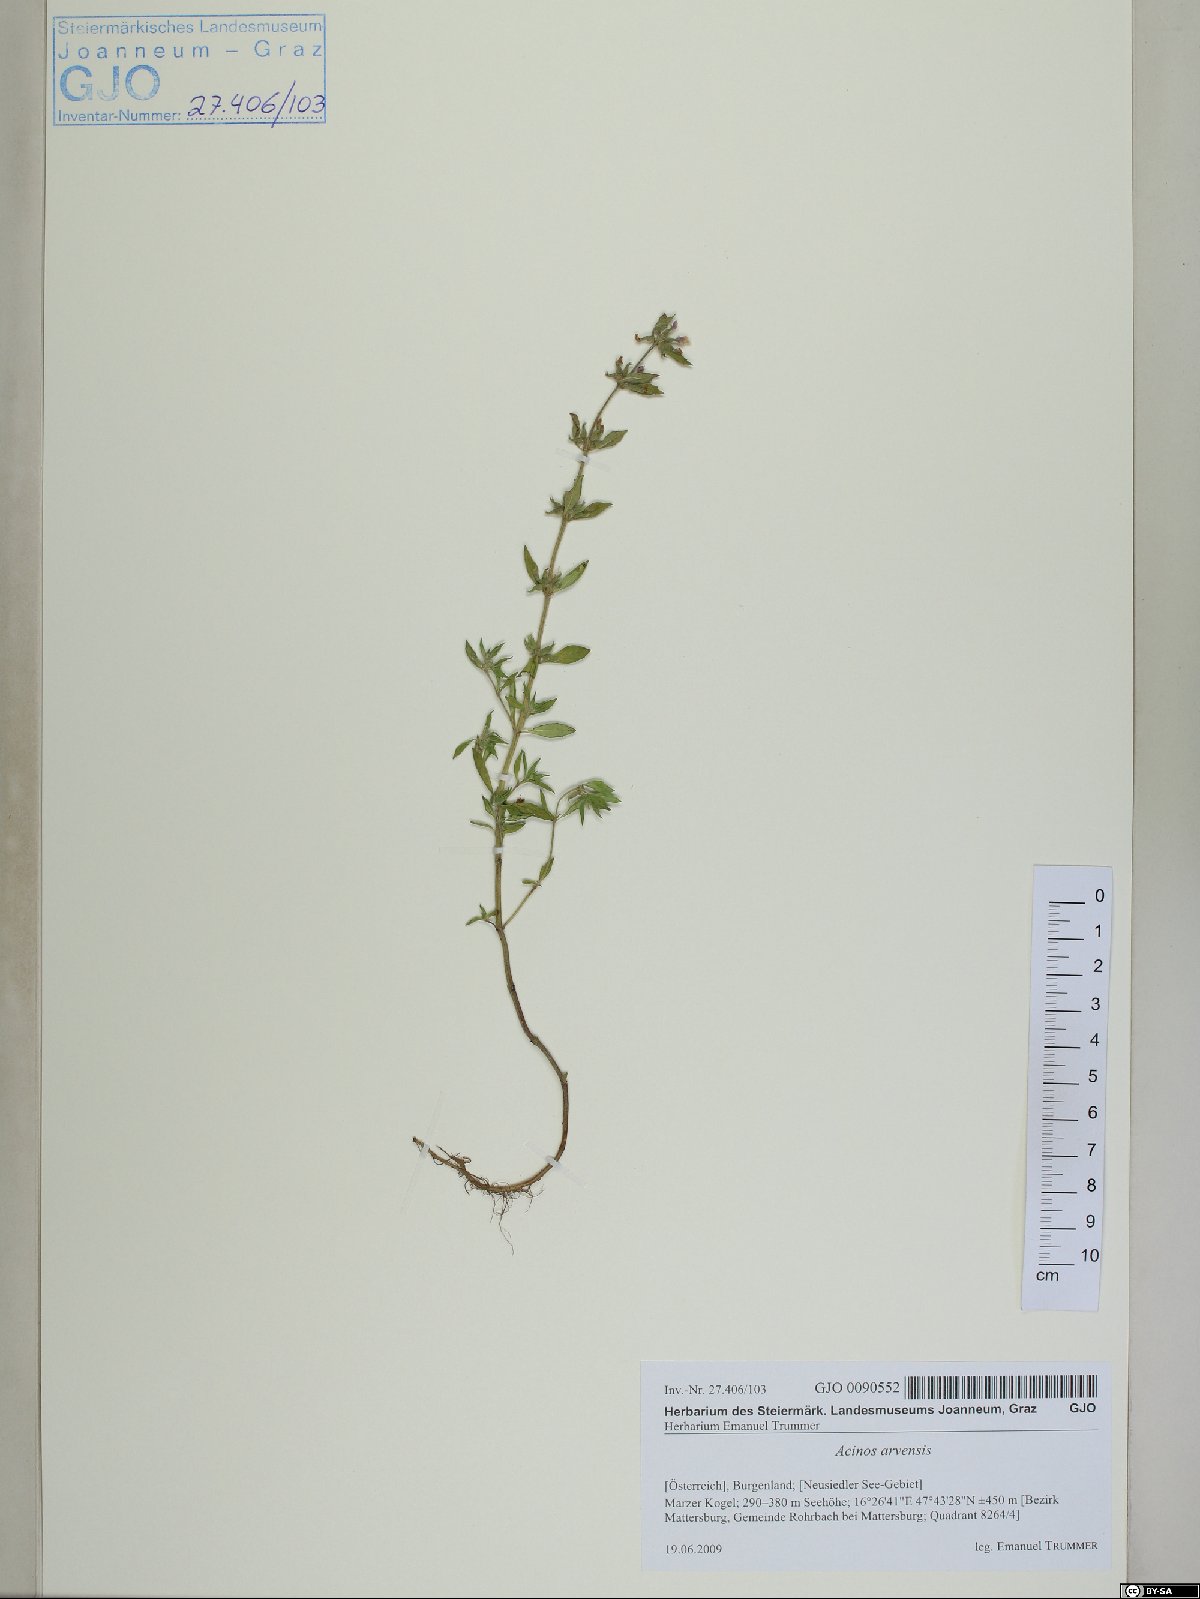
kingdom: Plantae
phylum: Tracheophyta
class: Magnoliopsida
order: Lamiales
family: Lamiaceae
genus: Clinopodium
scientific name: Clinopodium acinos
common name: Basil thyme
